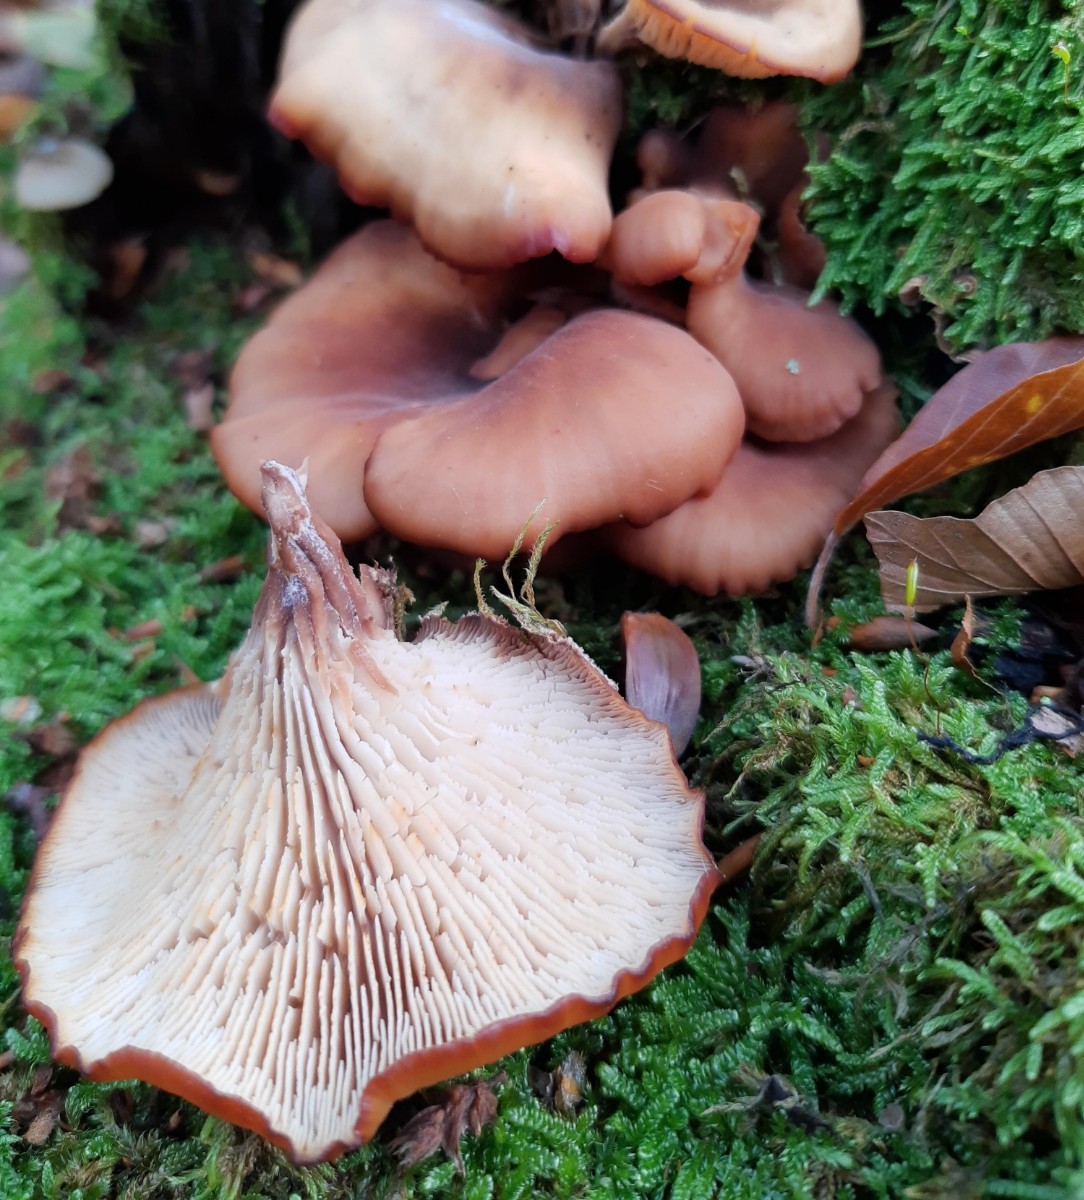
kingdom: Fungi
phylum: Basidiomycota
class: Agaricomycetes
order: Russulales
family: Auriscalpiaceae
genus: Lentinellus
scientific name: Lentinellus cochleatus
